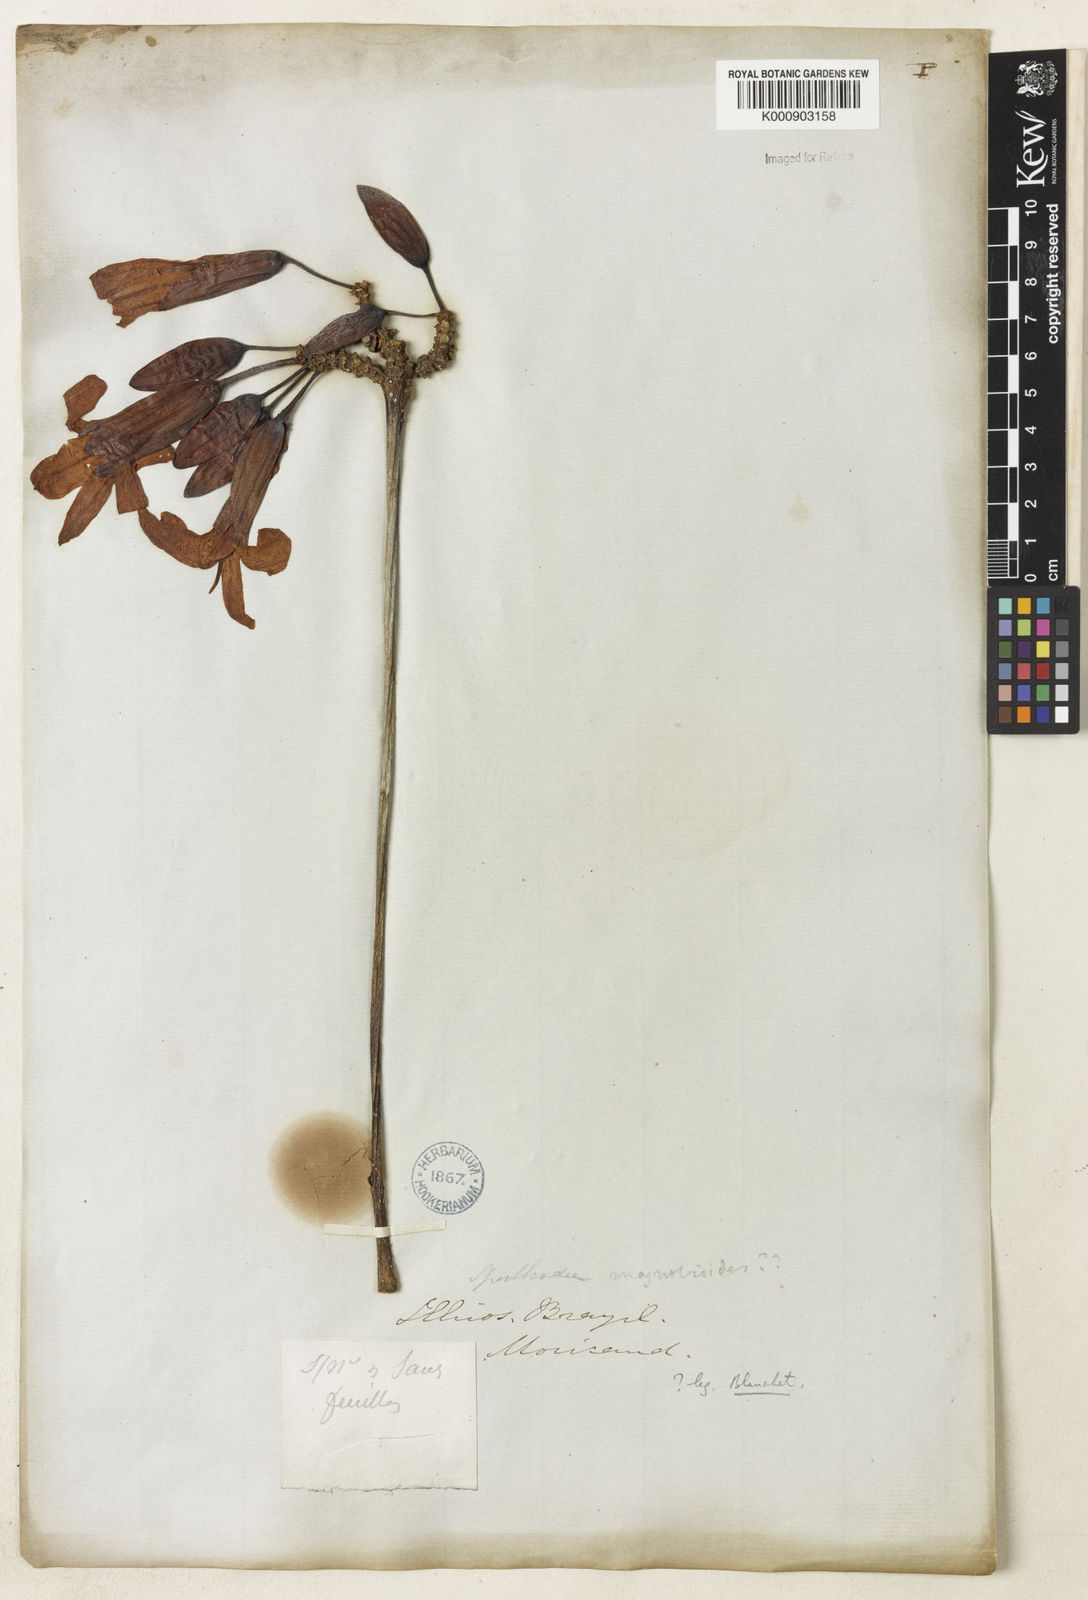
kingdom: Plantae
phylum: Tracheophyta
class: Magnoliopsida
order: Lamiales
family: Bignoniaceae
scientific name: Bignoniaceae
